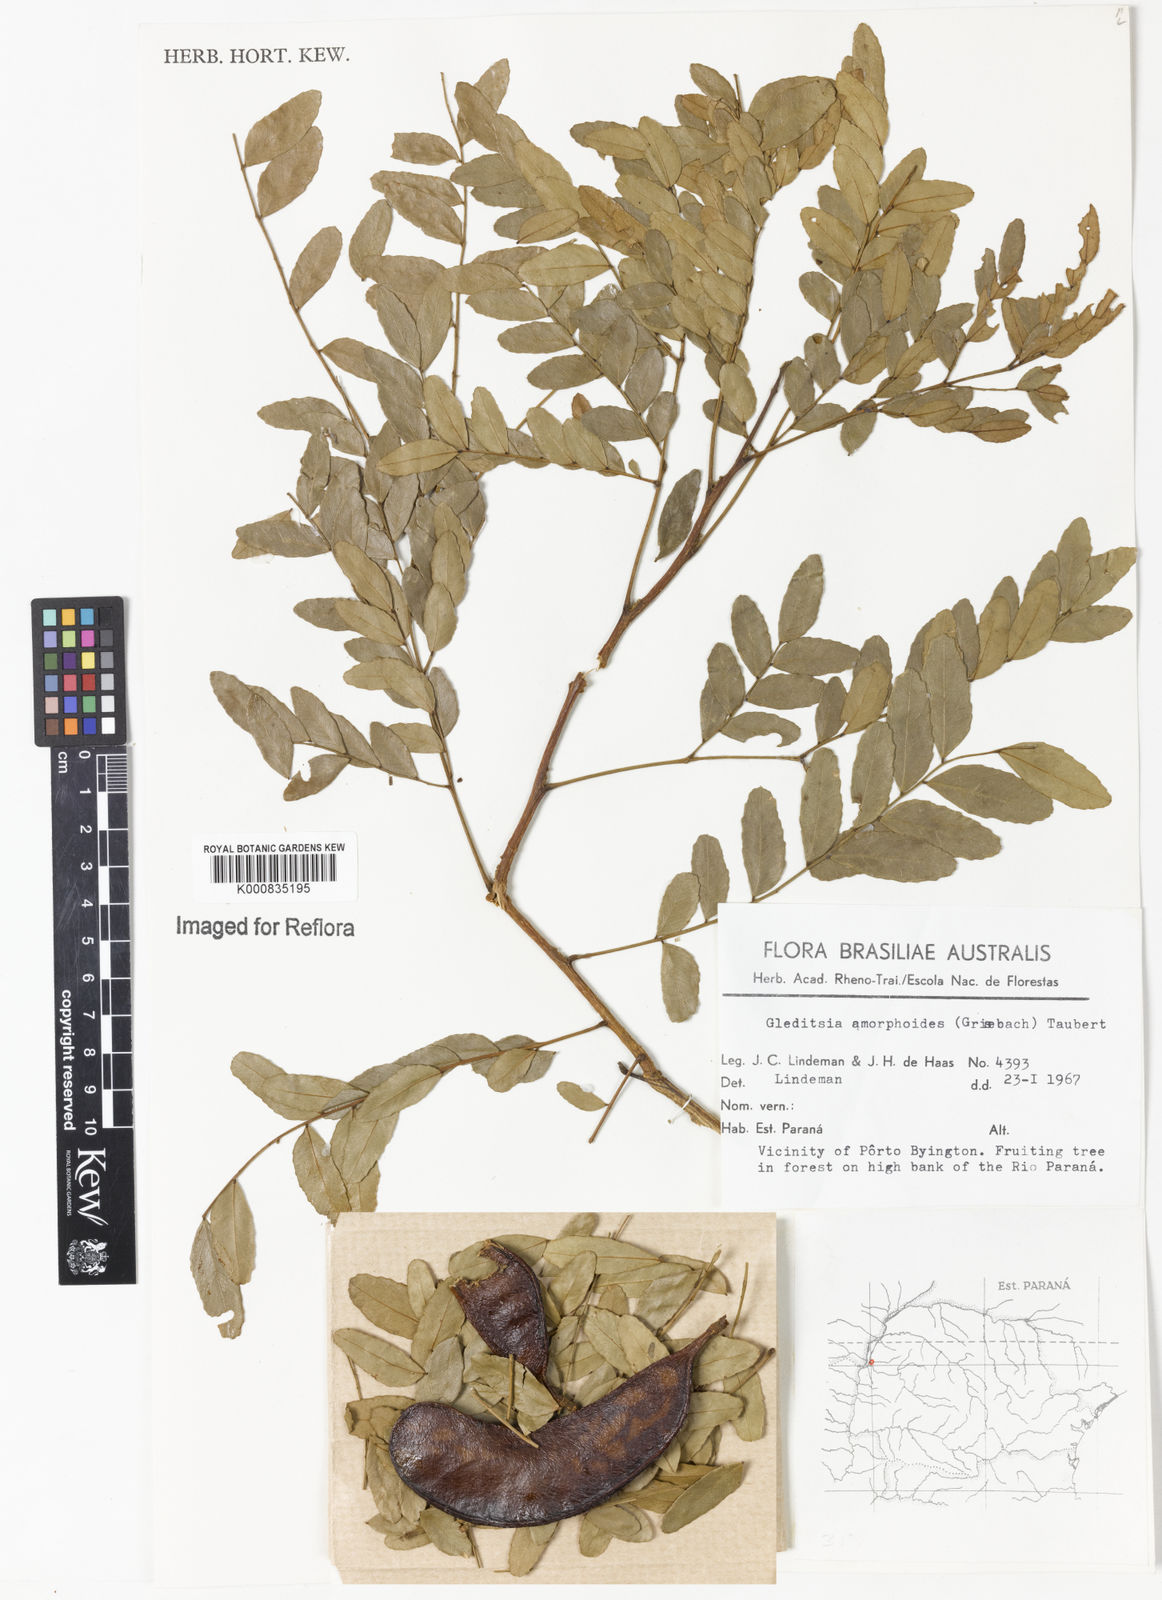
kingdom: Plantae
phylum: Tracheophyta
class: Magnoliopsida
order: Fabales
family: Fabaceae
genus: Gleditsia
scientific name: Gleditsia amorphoides
